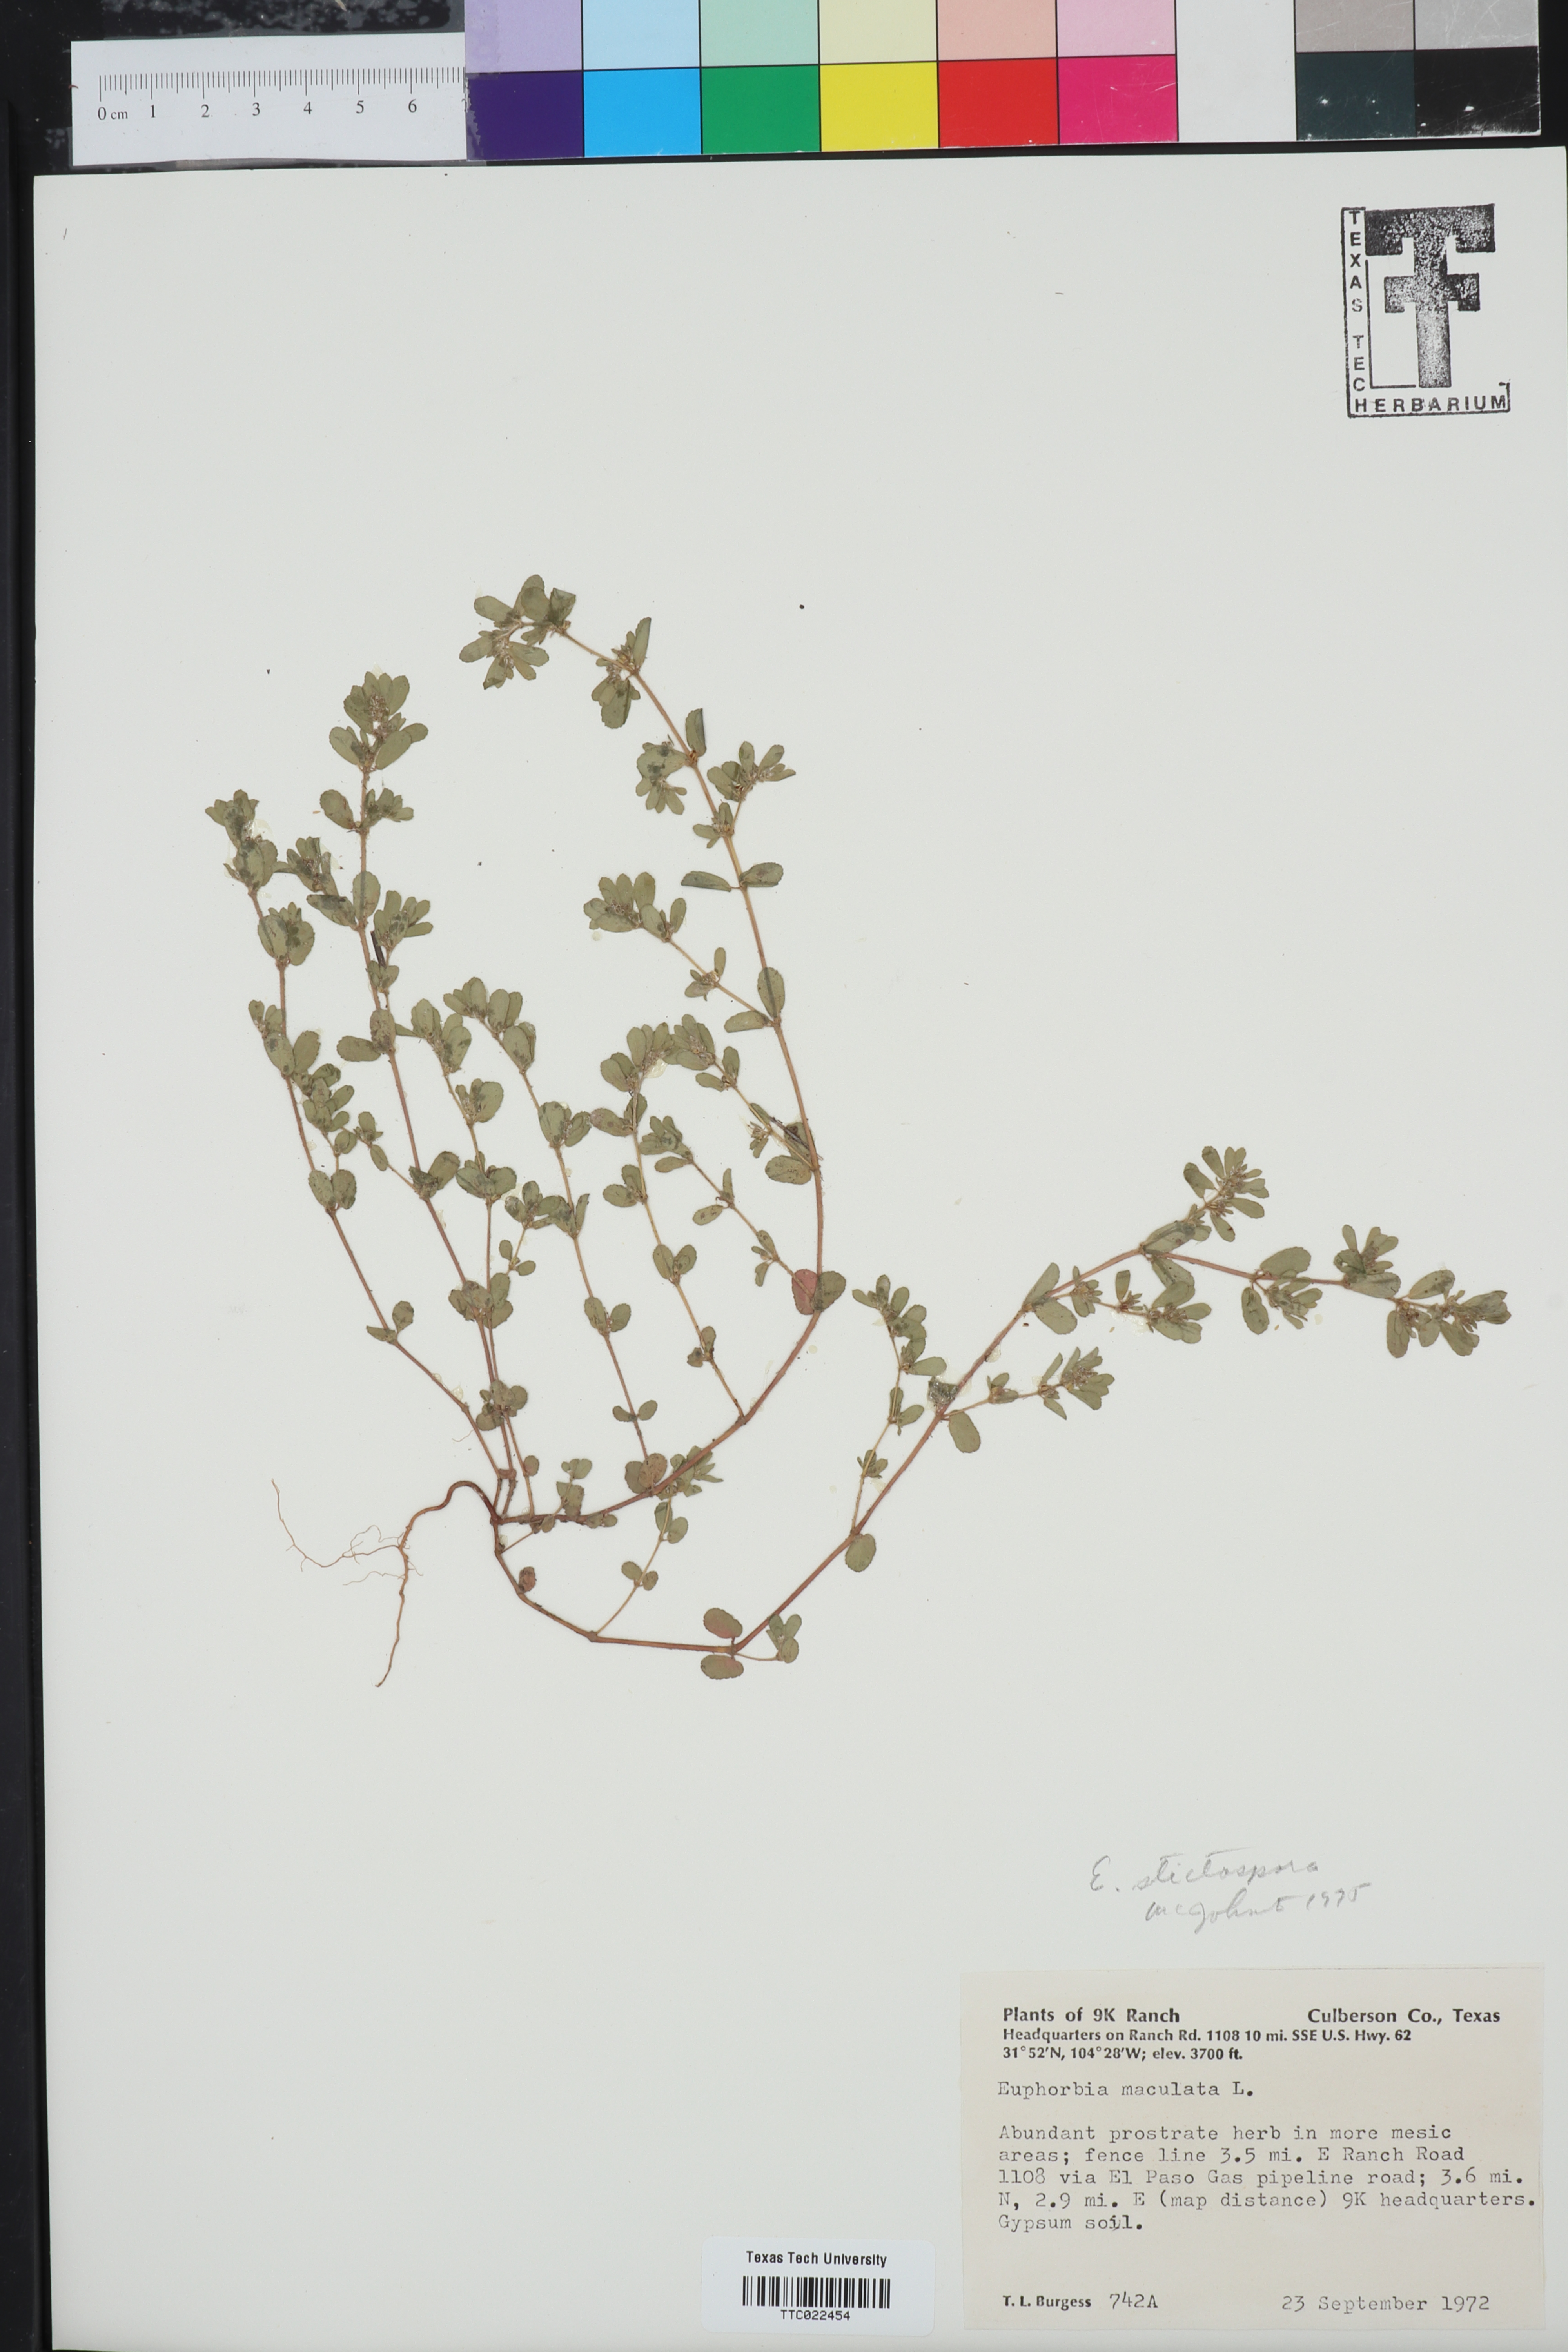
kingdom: Plantae
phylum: Tracheophyta
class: Magnoliopsida
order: Malpighiales
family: Euphorbiaceae
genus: Euphorbia
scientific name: Euphorbia maculata
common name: Spotted spurge
